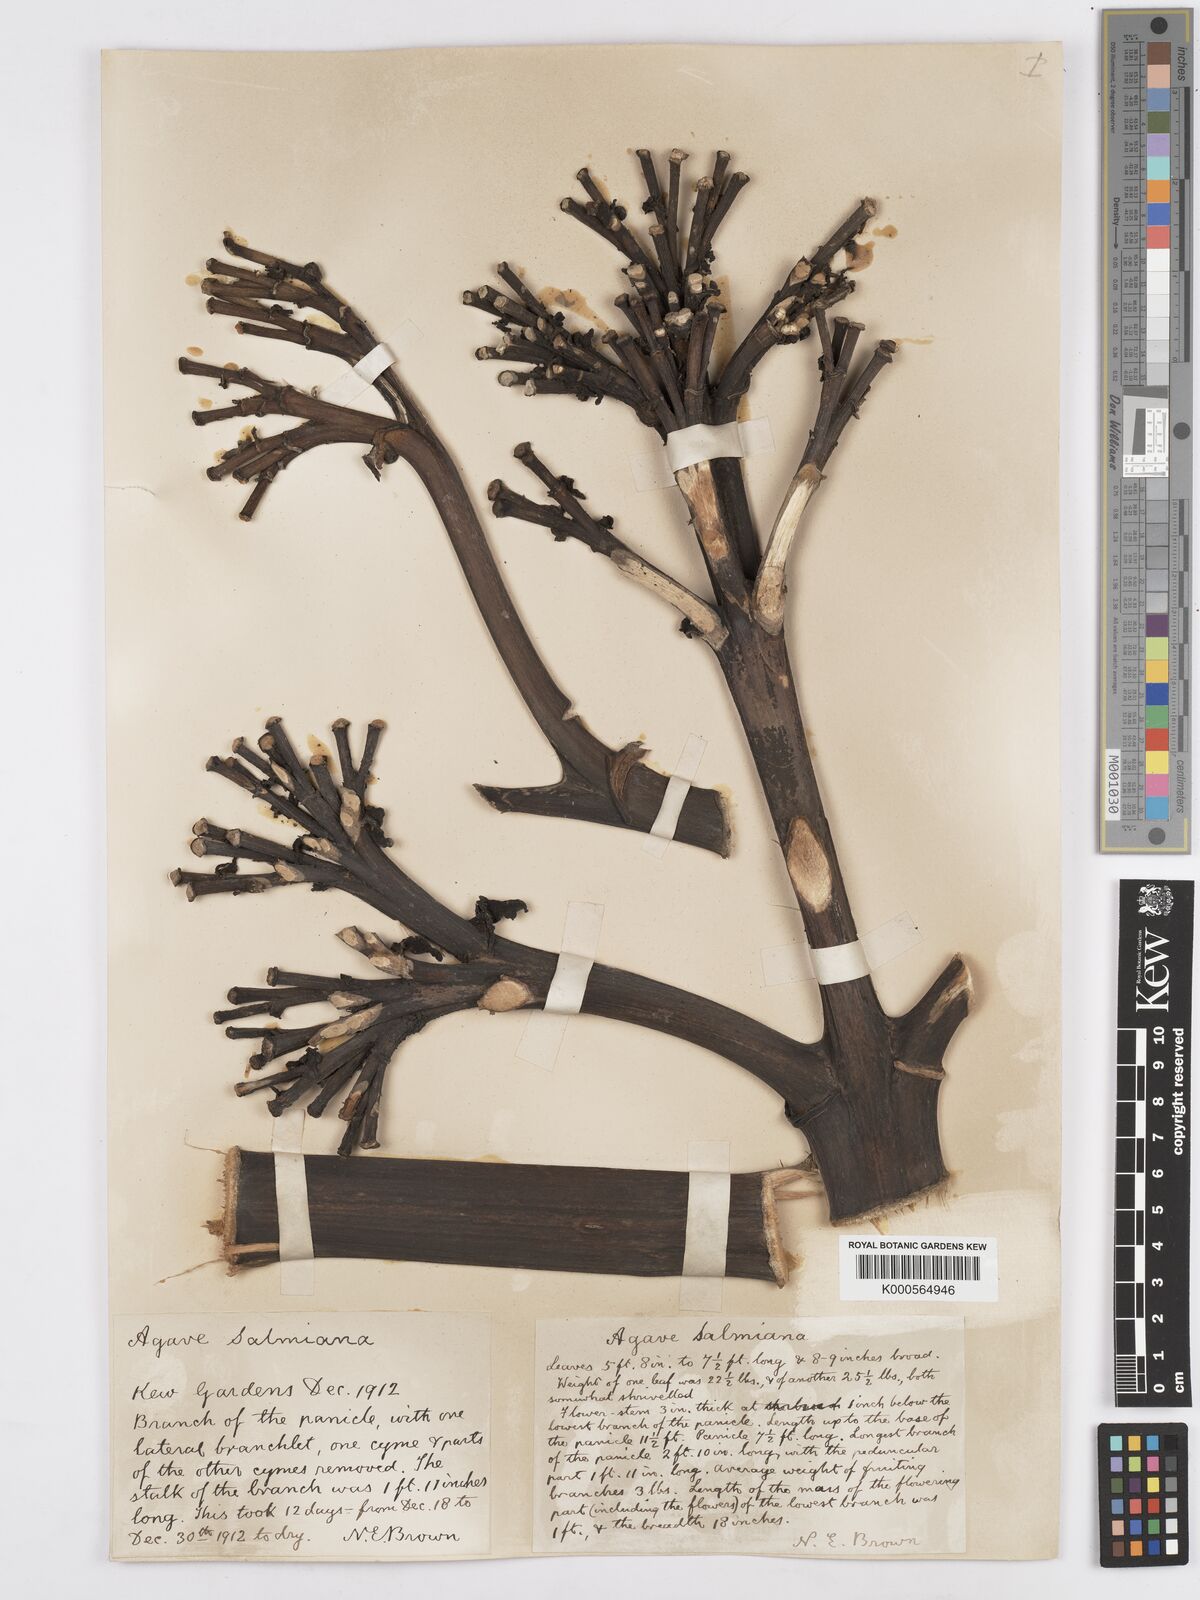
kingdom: Plantae
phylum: Tracheophyta
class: Liliopsida
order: Asparagales
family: Asparagaceae
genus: Agave
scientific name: Agave salmiana
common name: Pulque agave
